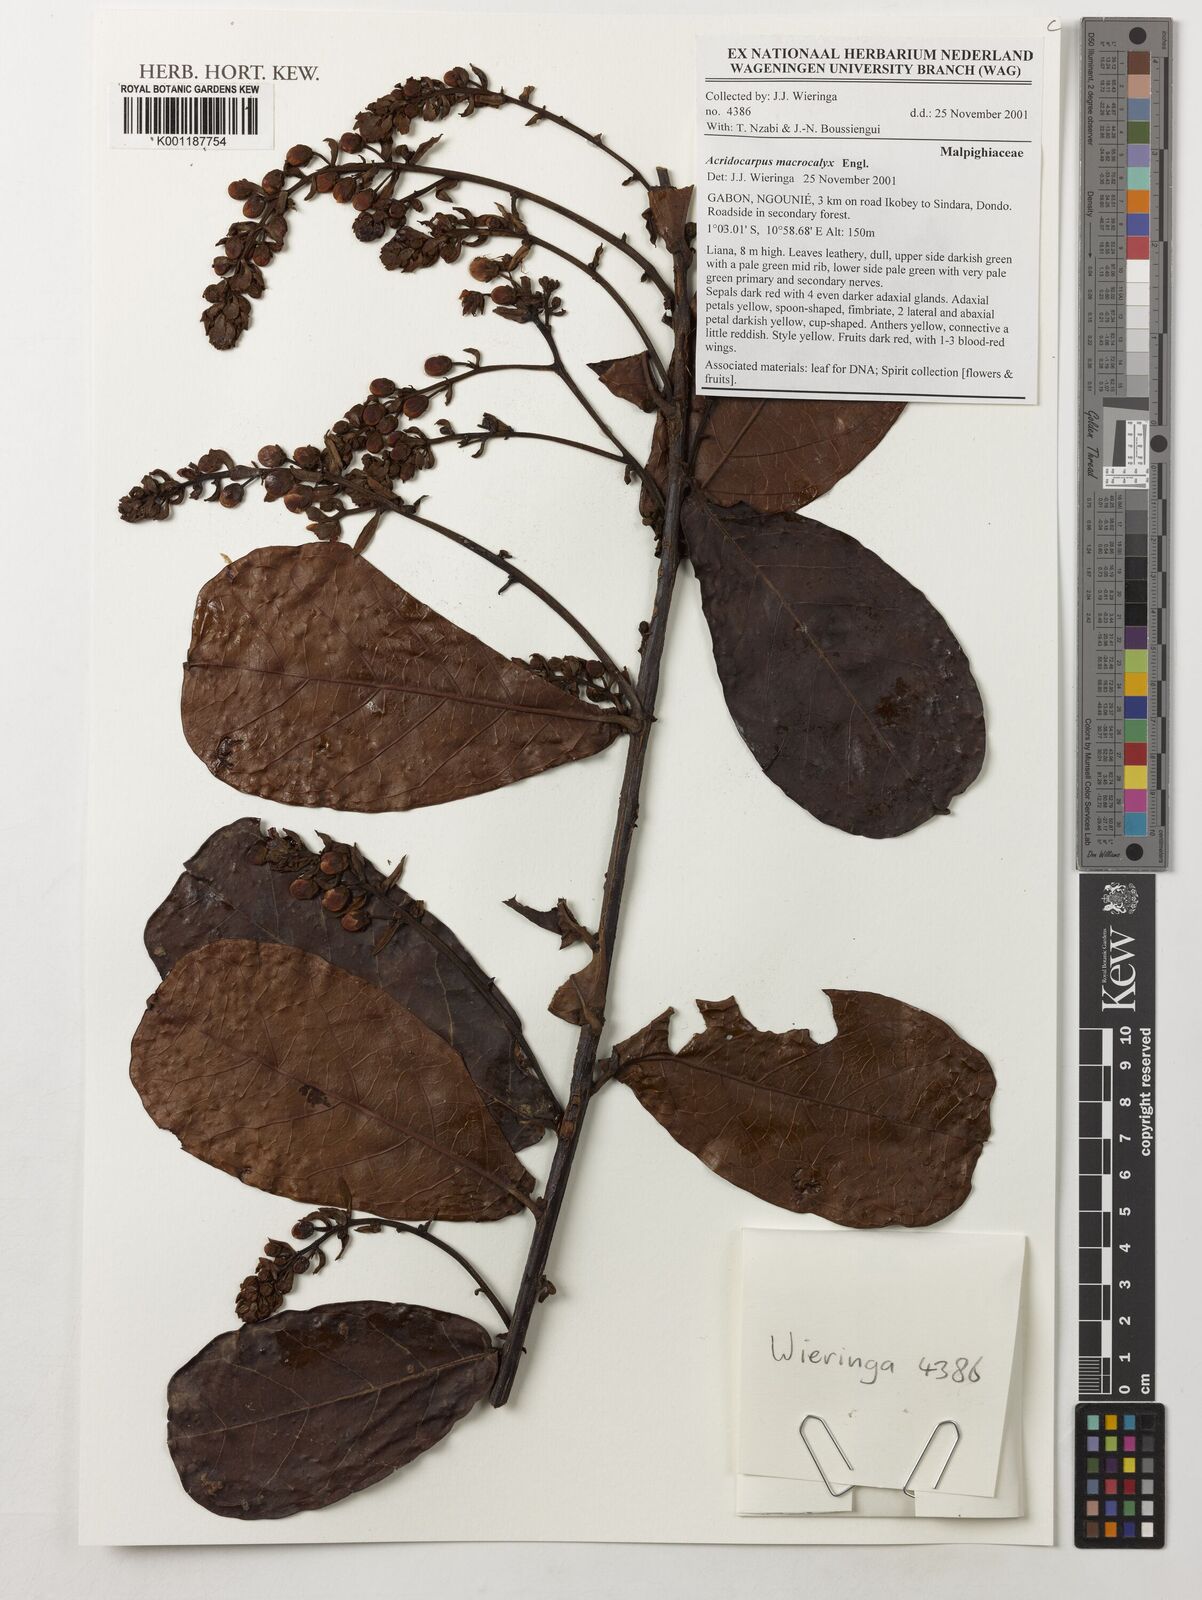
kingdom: Plantae
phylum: Tracheophyta
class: Magnoliopsida
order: Malpighiales
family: Malpighiaceae
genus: Acridocarpus
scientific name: Acridocarpus macrocalyx
